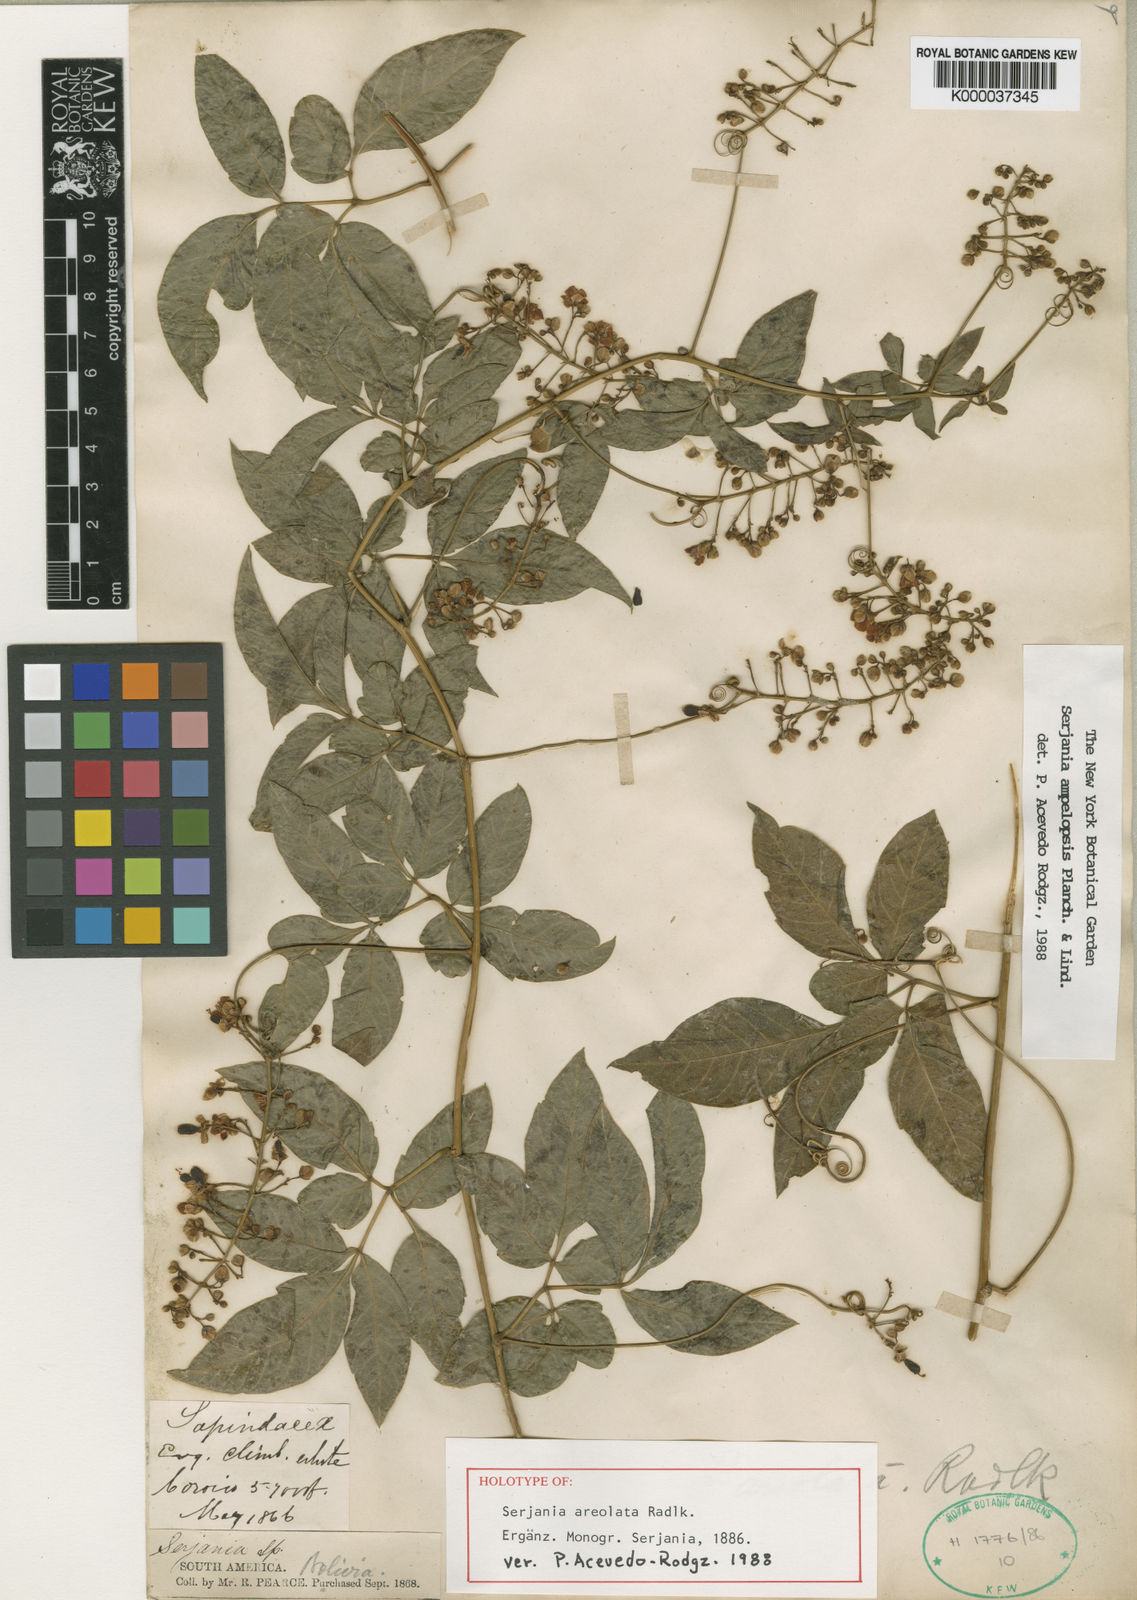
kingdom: Plantae
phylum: Tracheophyta
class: Magnoliopsida
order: Sapindales
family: Sapindaceae
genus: Serjania
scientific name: Serjania ampelopsis
